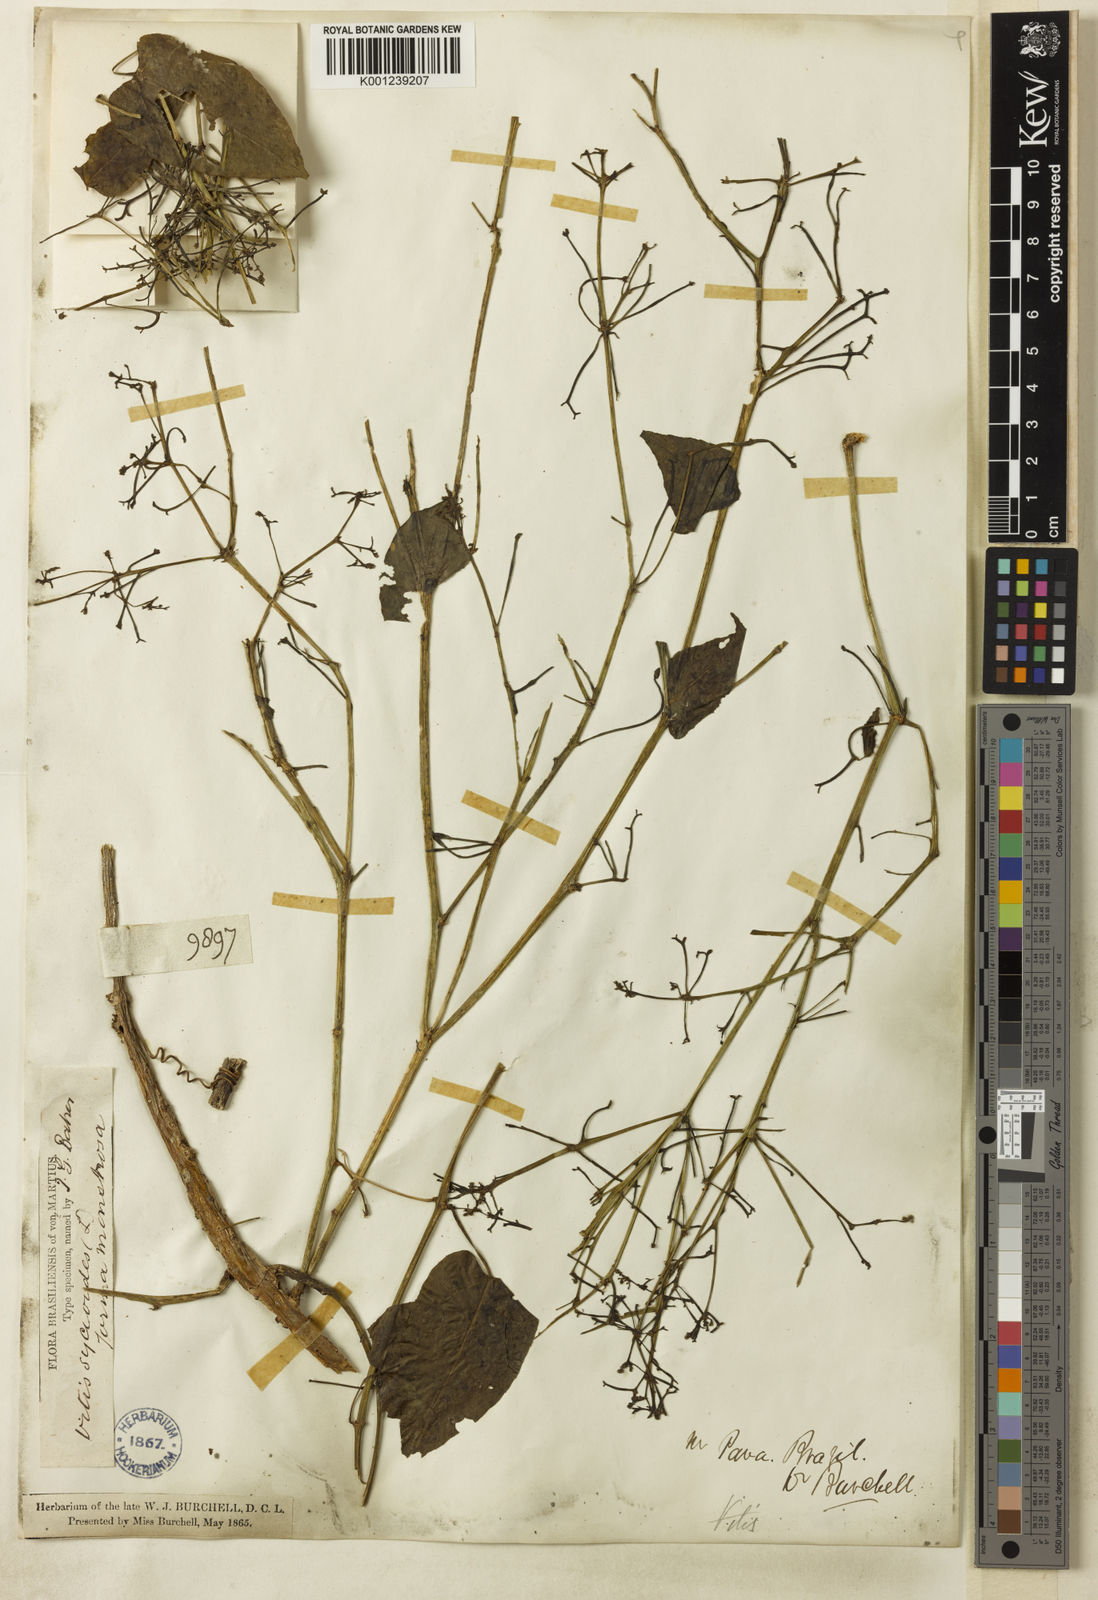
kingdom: Plantae
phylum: Tracheophyta
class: Magnoliopsida
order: Vitales
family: Vitaceae
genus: Cissus
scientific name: Cissus verticillata
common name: Princess vine
